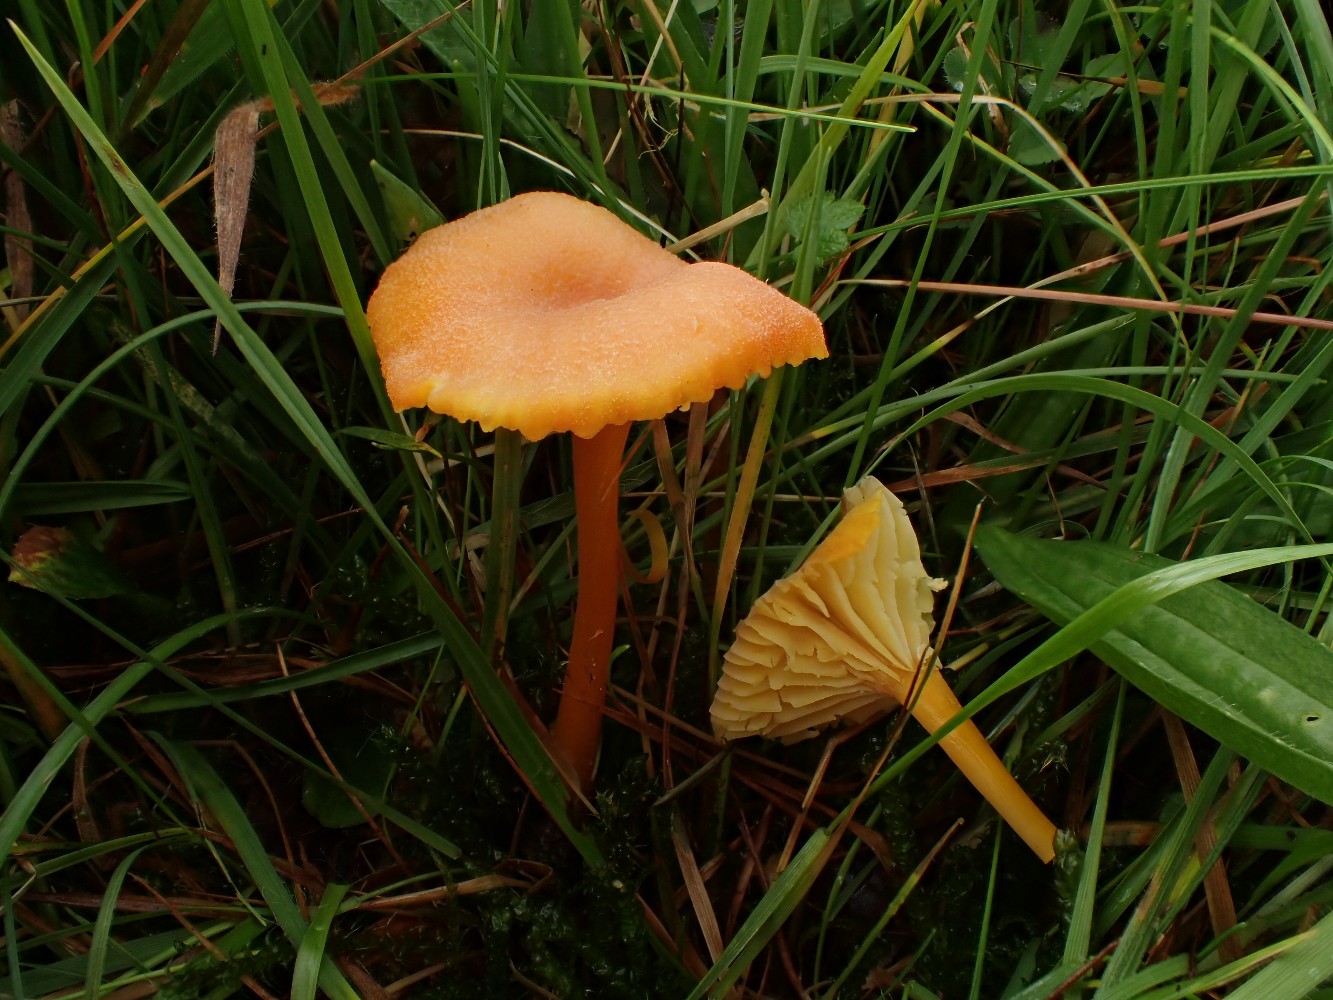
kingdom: Fungi
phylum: Basidiomycota
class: Agaricomycetes
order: Agaricales
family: Hygrophoraceae
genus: Hygrocybe
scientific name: Hygrocybe cantharellus
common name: kantarel-vokshat
